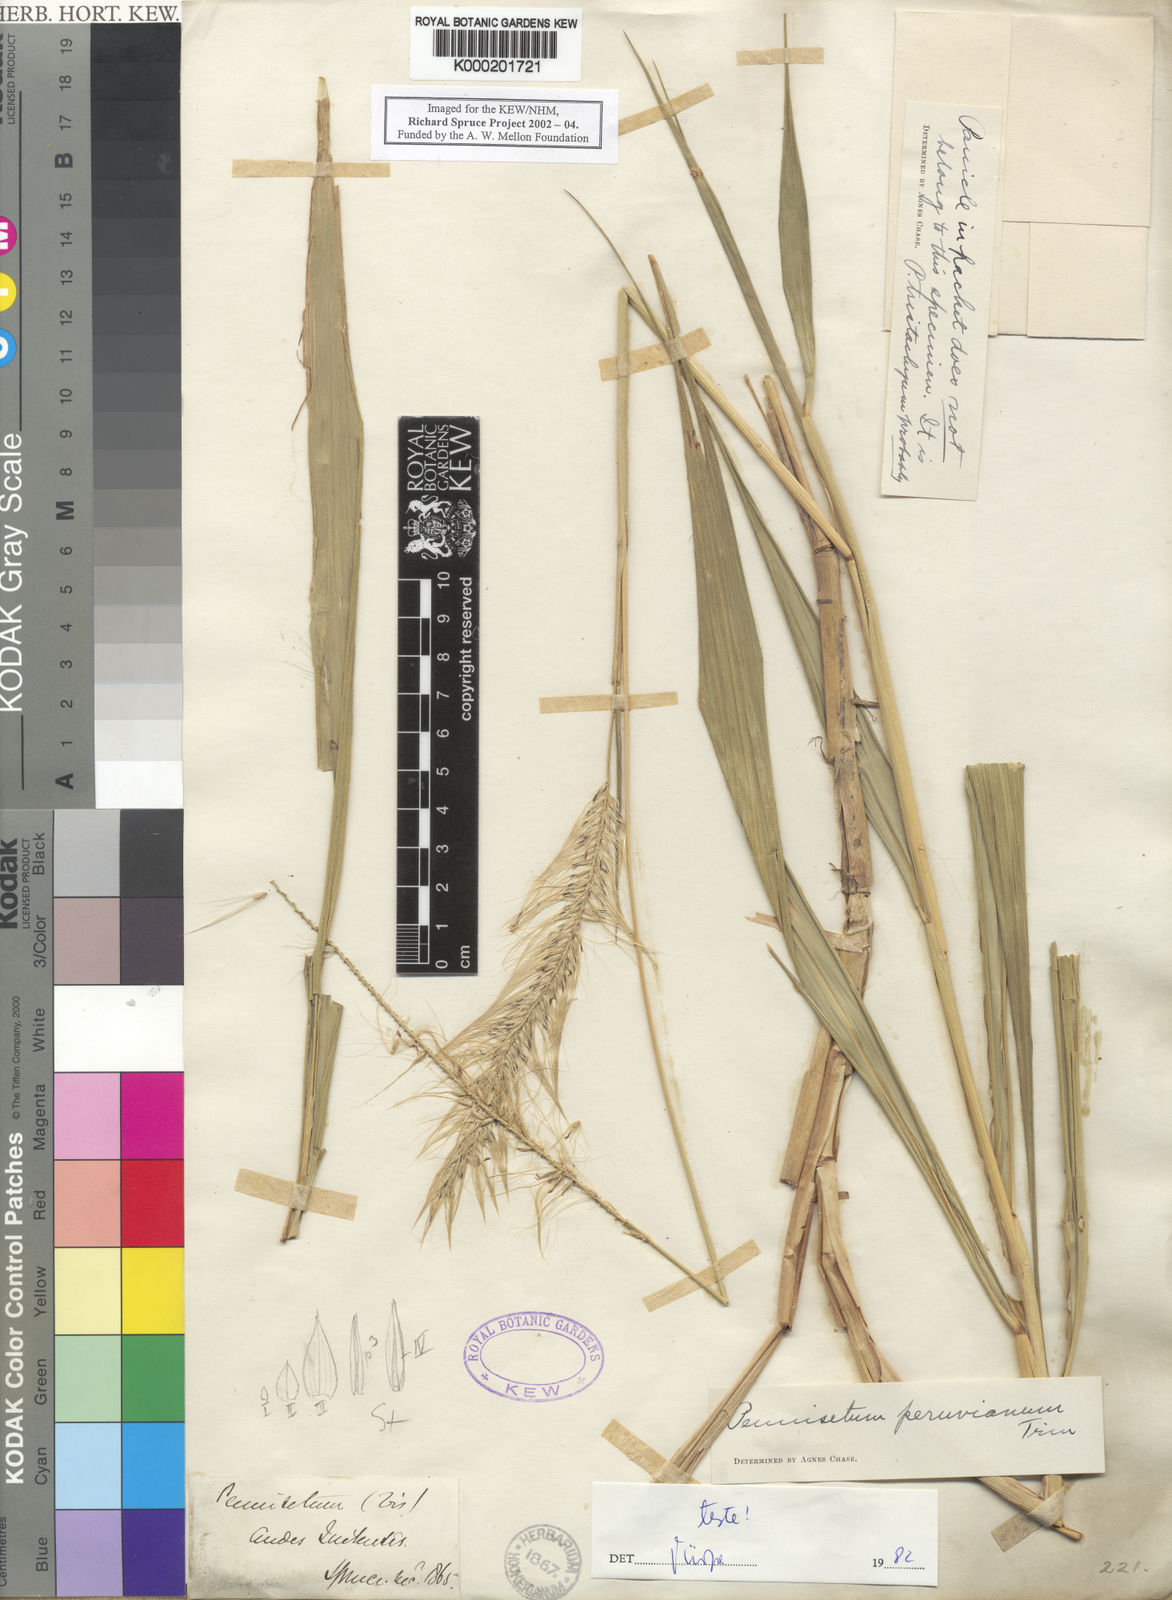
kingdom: Plantae
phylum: Tracheophyta
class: Liliopsida
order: Poales
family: Poaceae
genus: Cenchrus
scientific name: Cenchrus peruvianus
